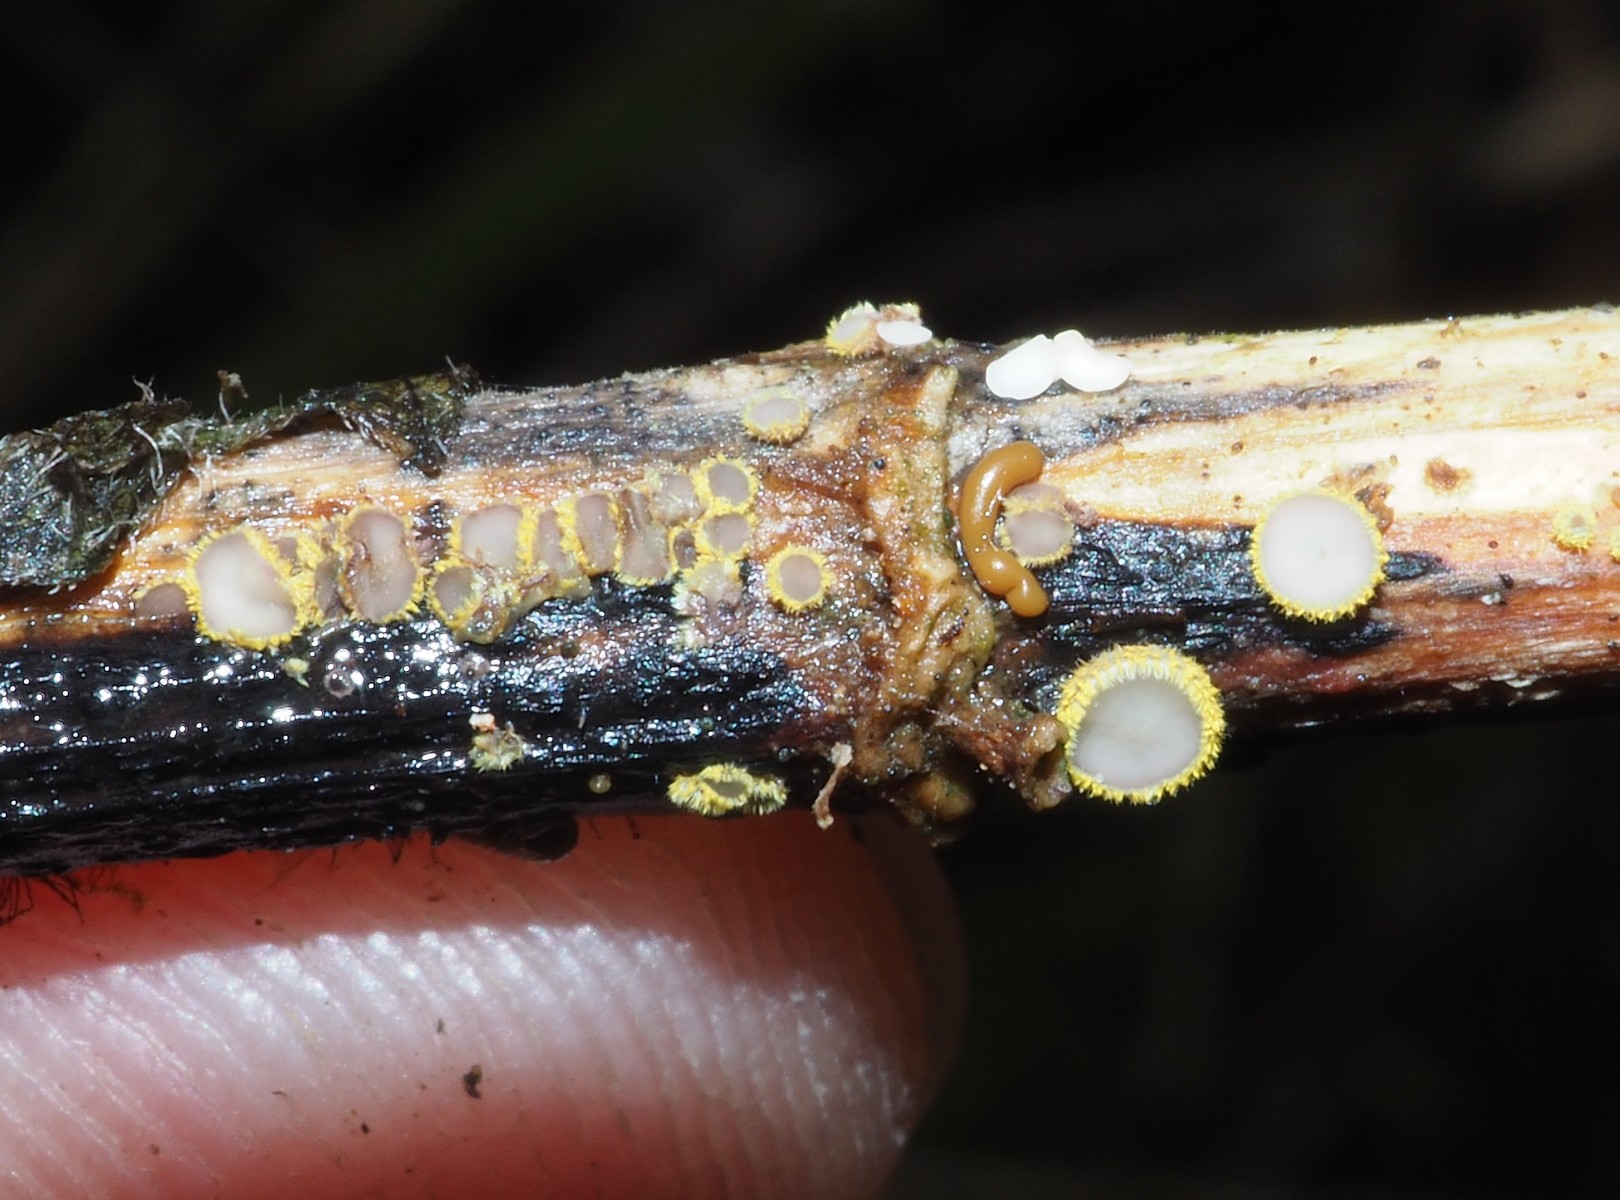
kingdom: Fungi
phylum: Ascomycota
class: Leotiomycetes
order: Helotiales
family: Lachnaceae
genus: Lachnum
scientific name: Lachnum sulphureum
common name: svovlhåret frynseskive
